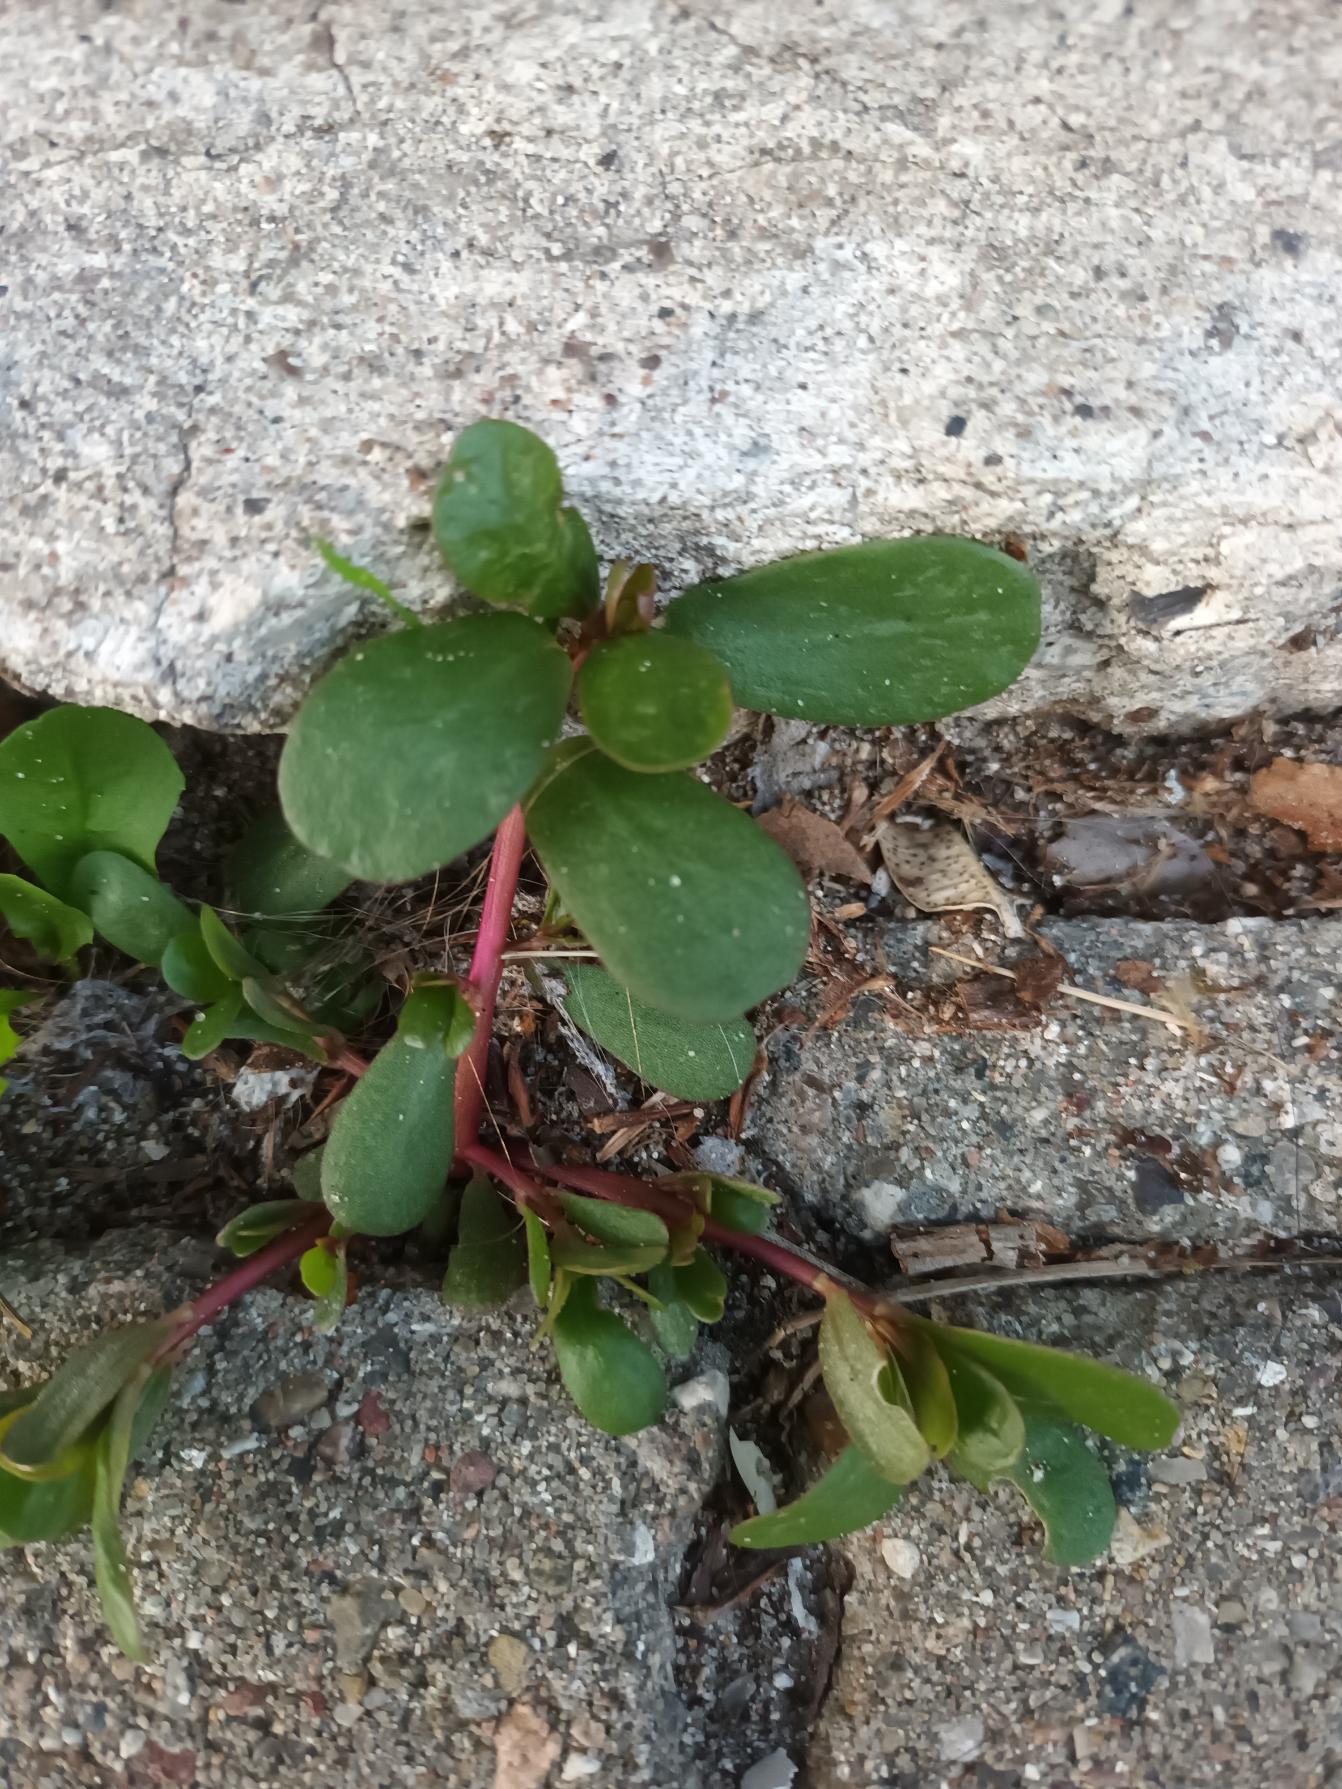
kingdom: Plantae
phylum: Tracheophyta
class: Magnoliopsida
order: Caryophyllales
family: Portulacaceae
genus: Portulaca
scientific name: Portulaca oleracea
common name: Portulak
